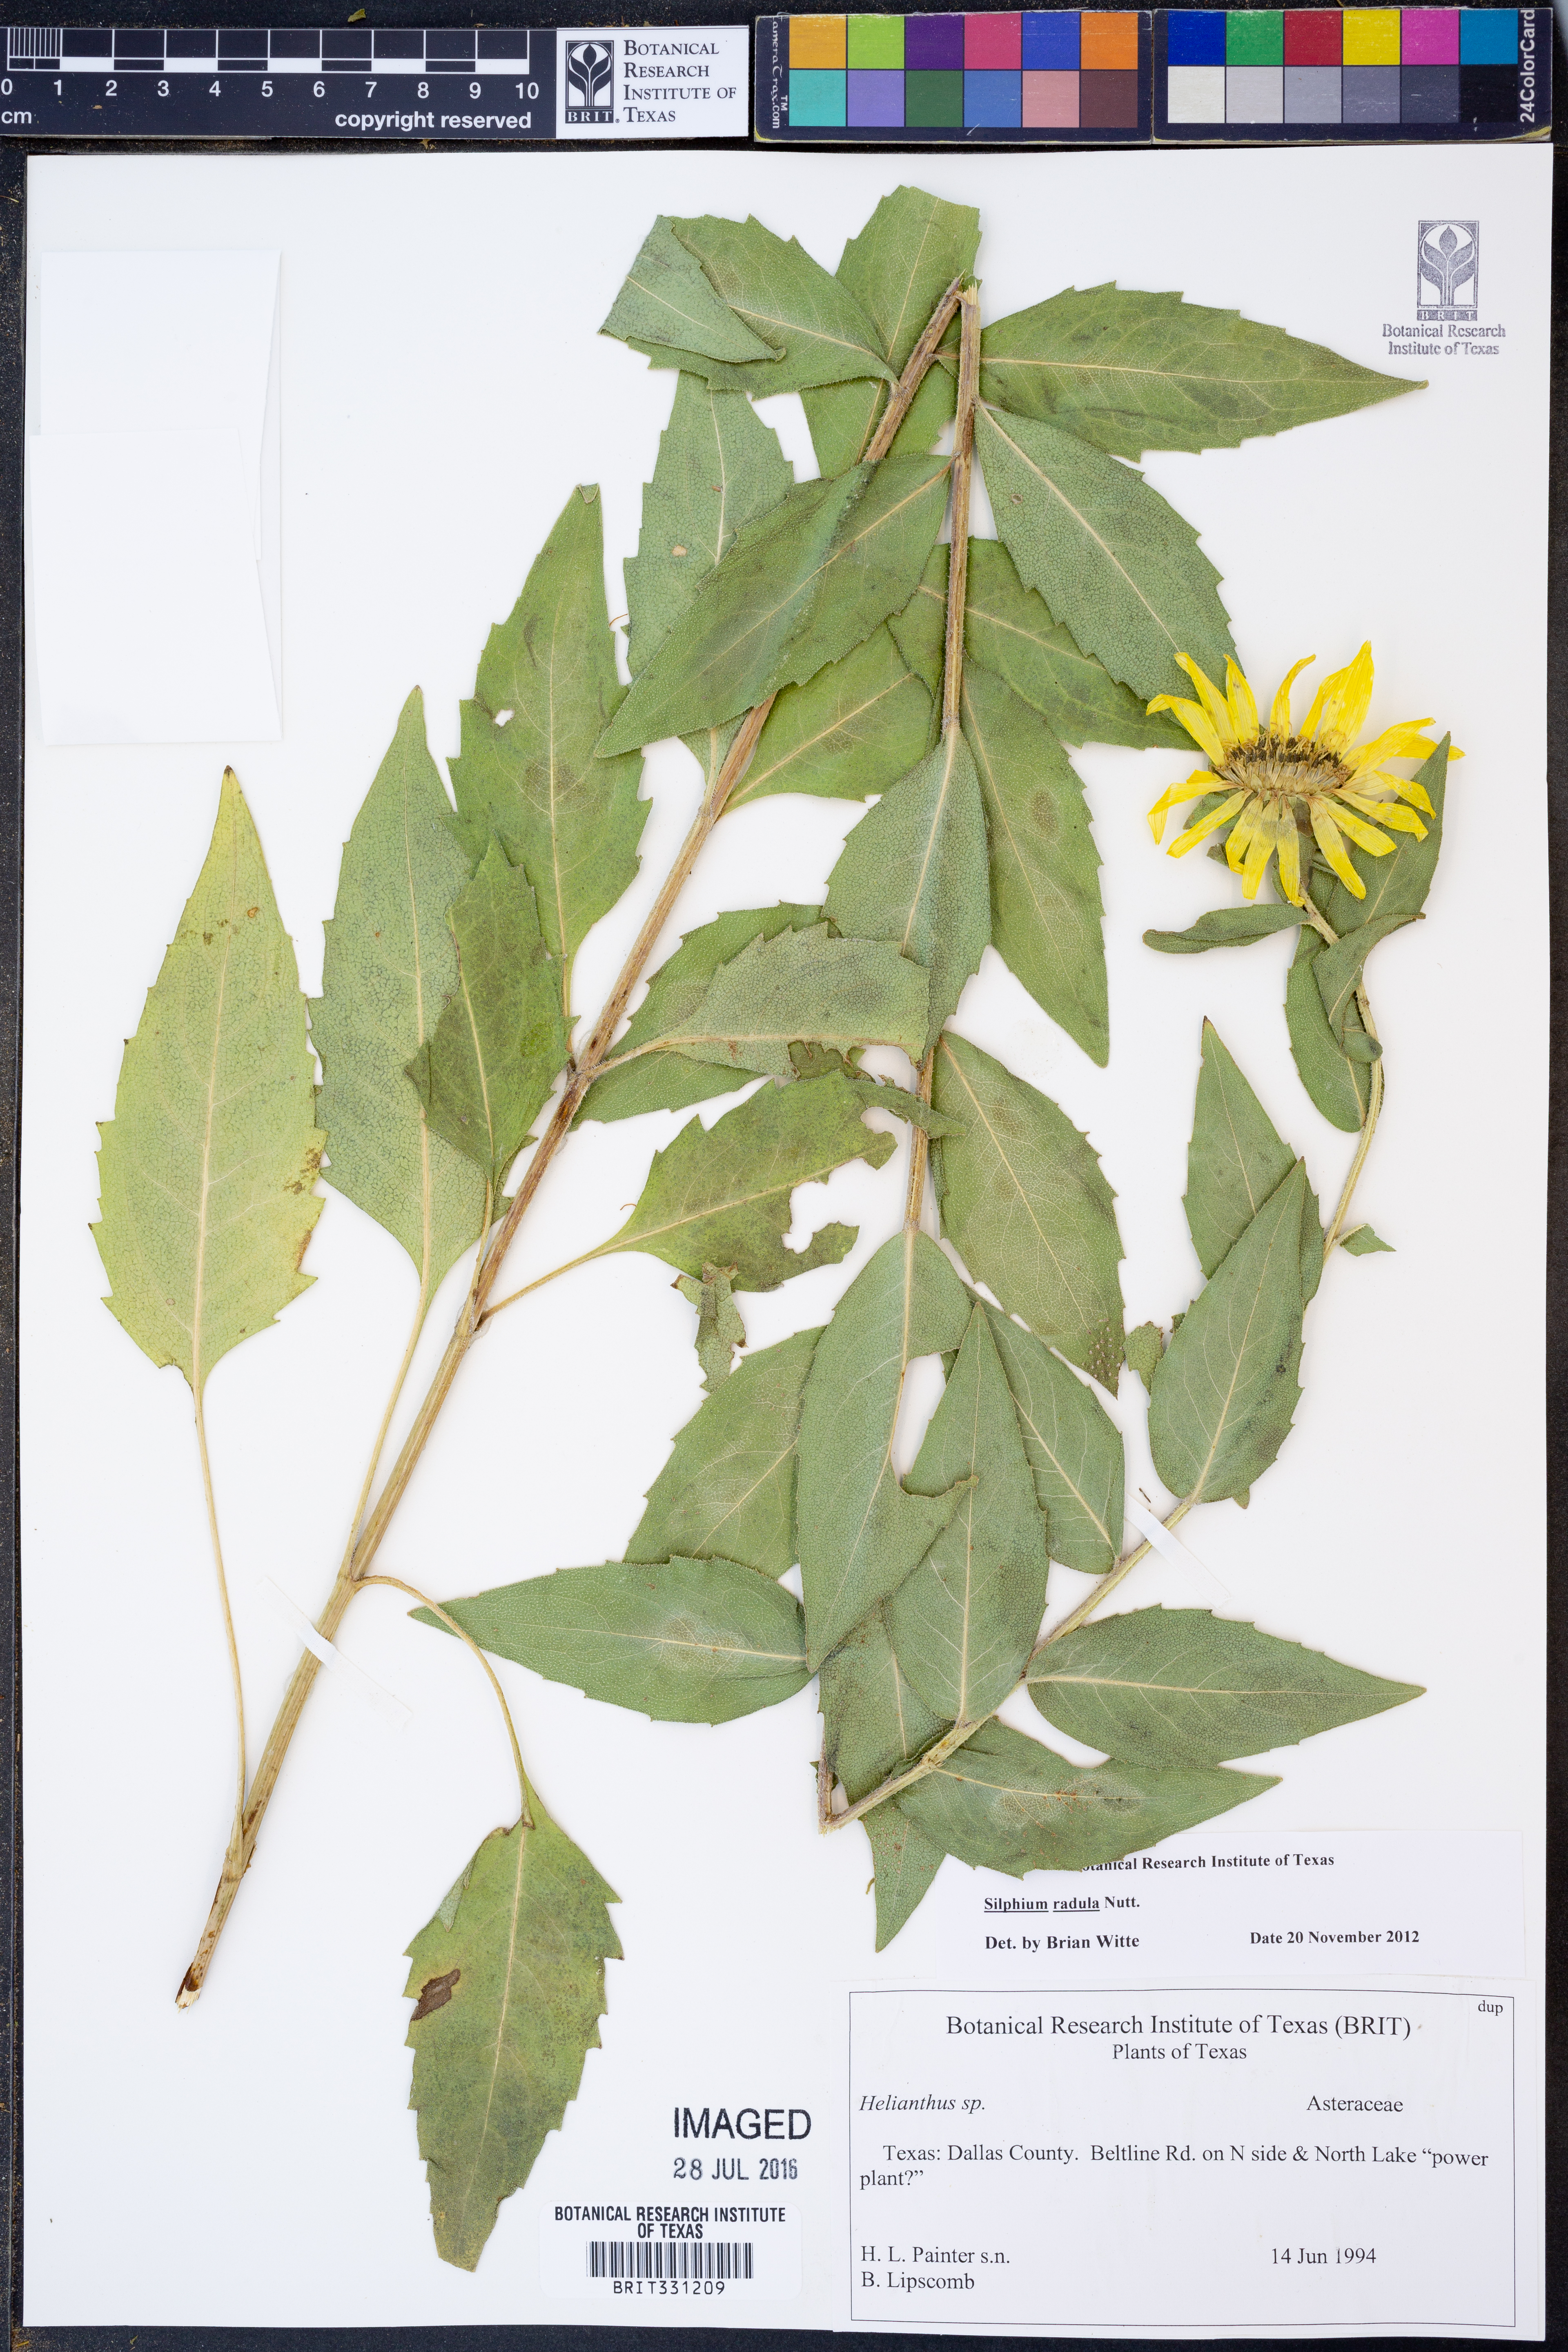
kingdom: Plantae
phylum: Tracheophyta
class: Magnoliopsida
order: Asterales
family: Asteraceae
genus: Silphium
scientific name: Silphium radula
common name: Roughleaf rosinweed
